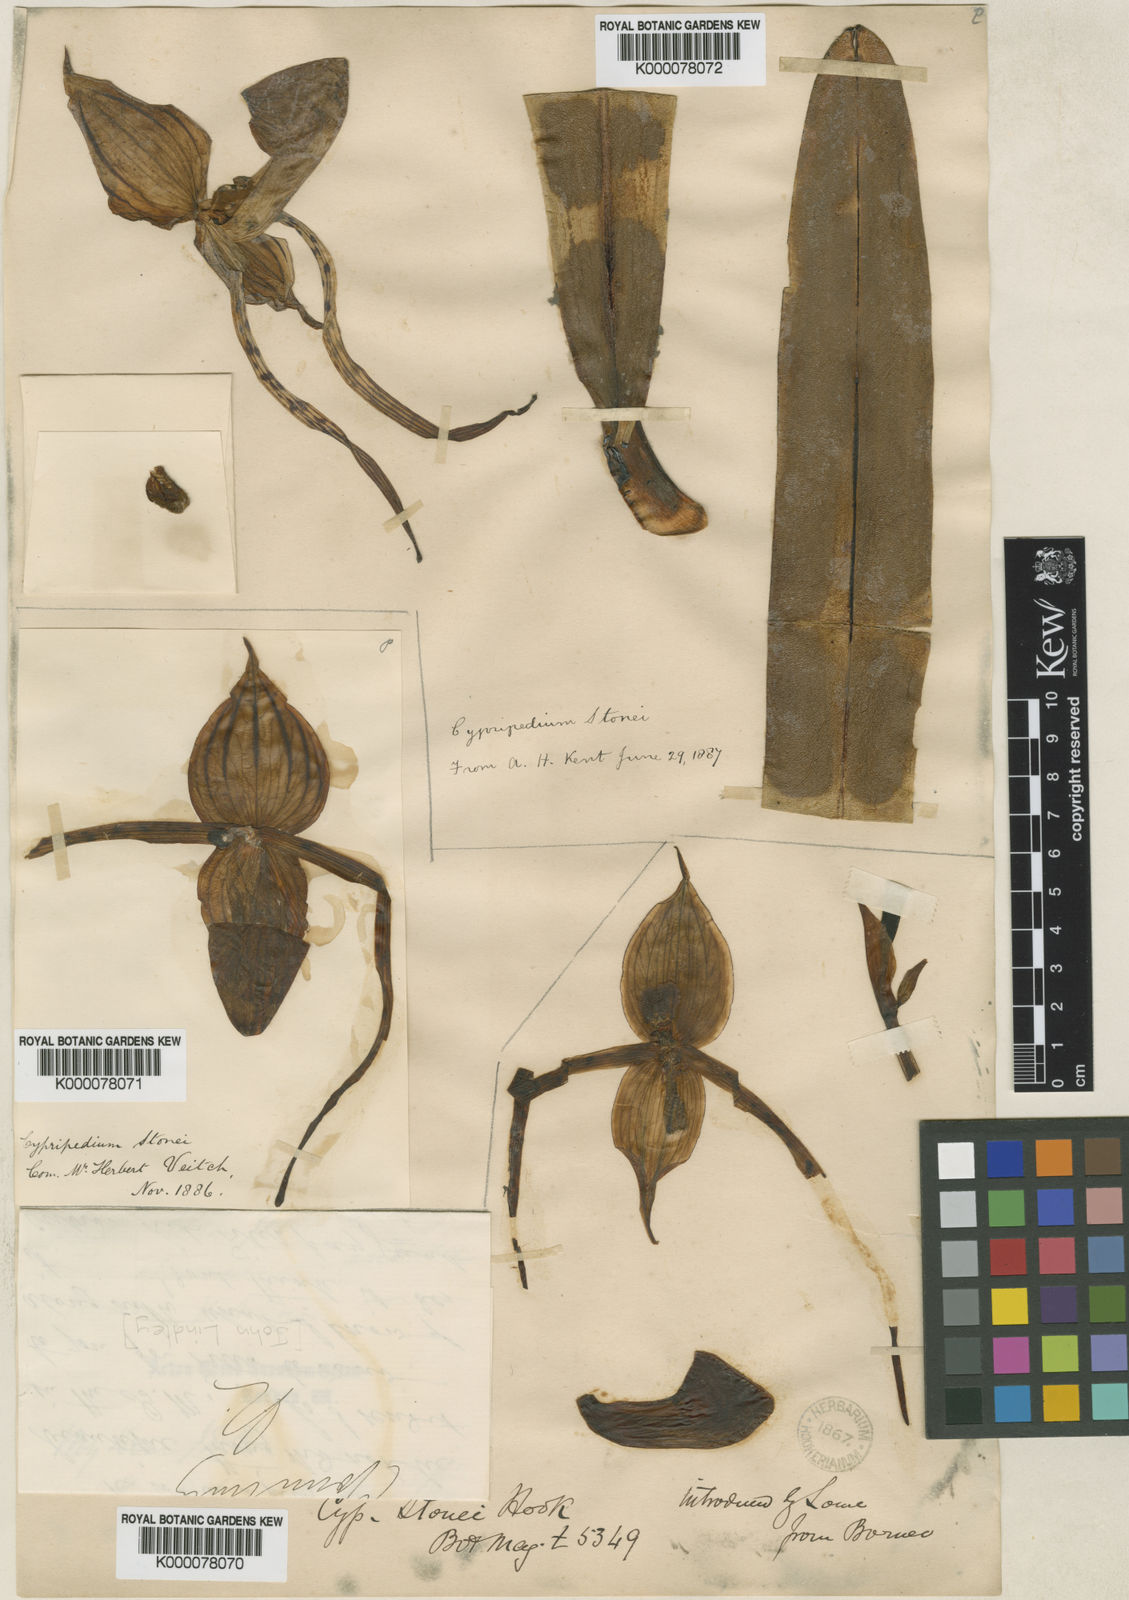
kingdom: Plantae
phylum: Tracheophyta
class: Liliopsida
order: Asparagales
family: Orchidaceae
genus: Paphiopedilum
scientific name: Paphiopedilum stonei
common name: Stone's paphiopedilum
